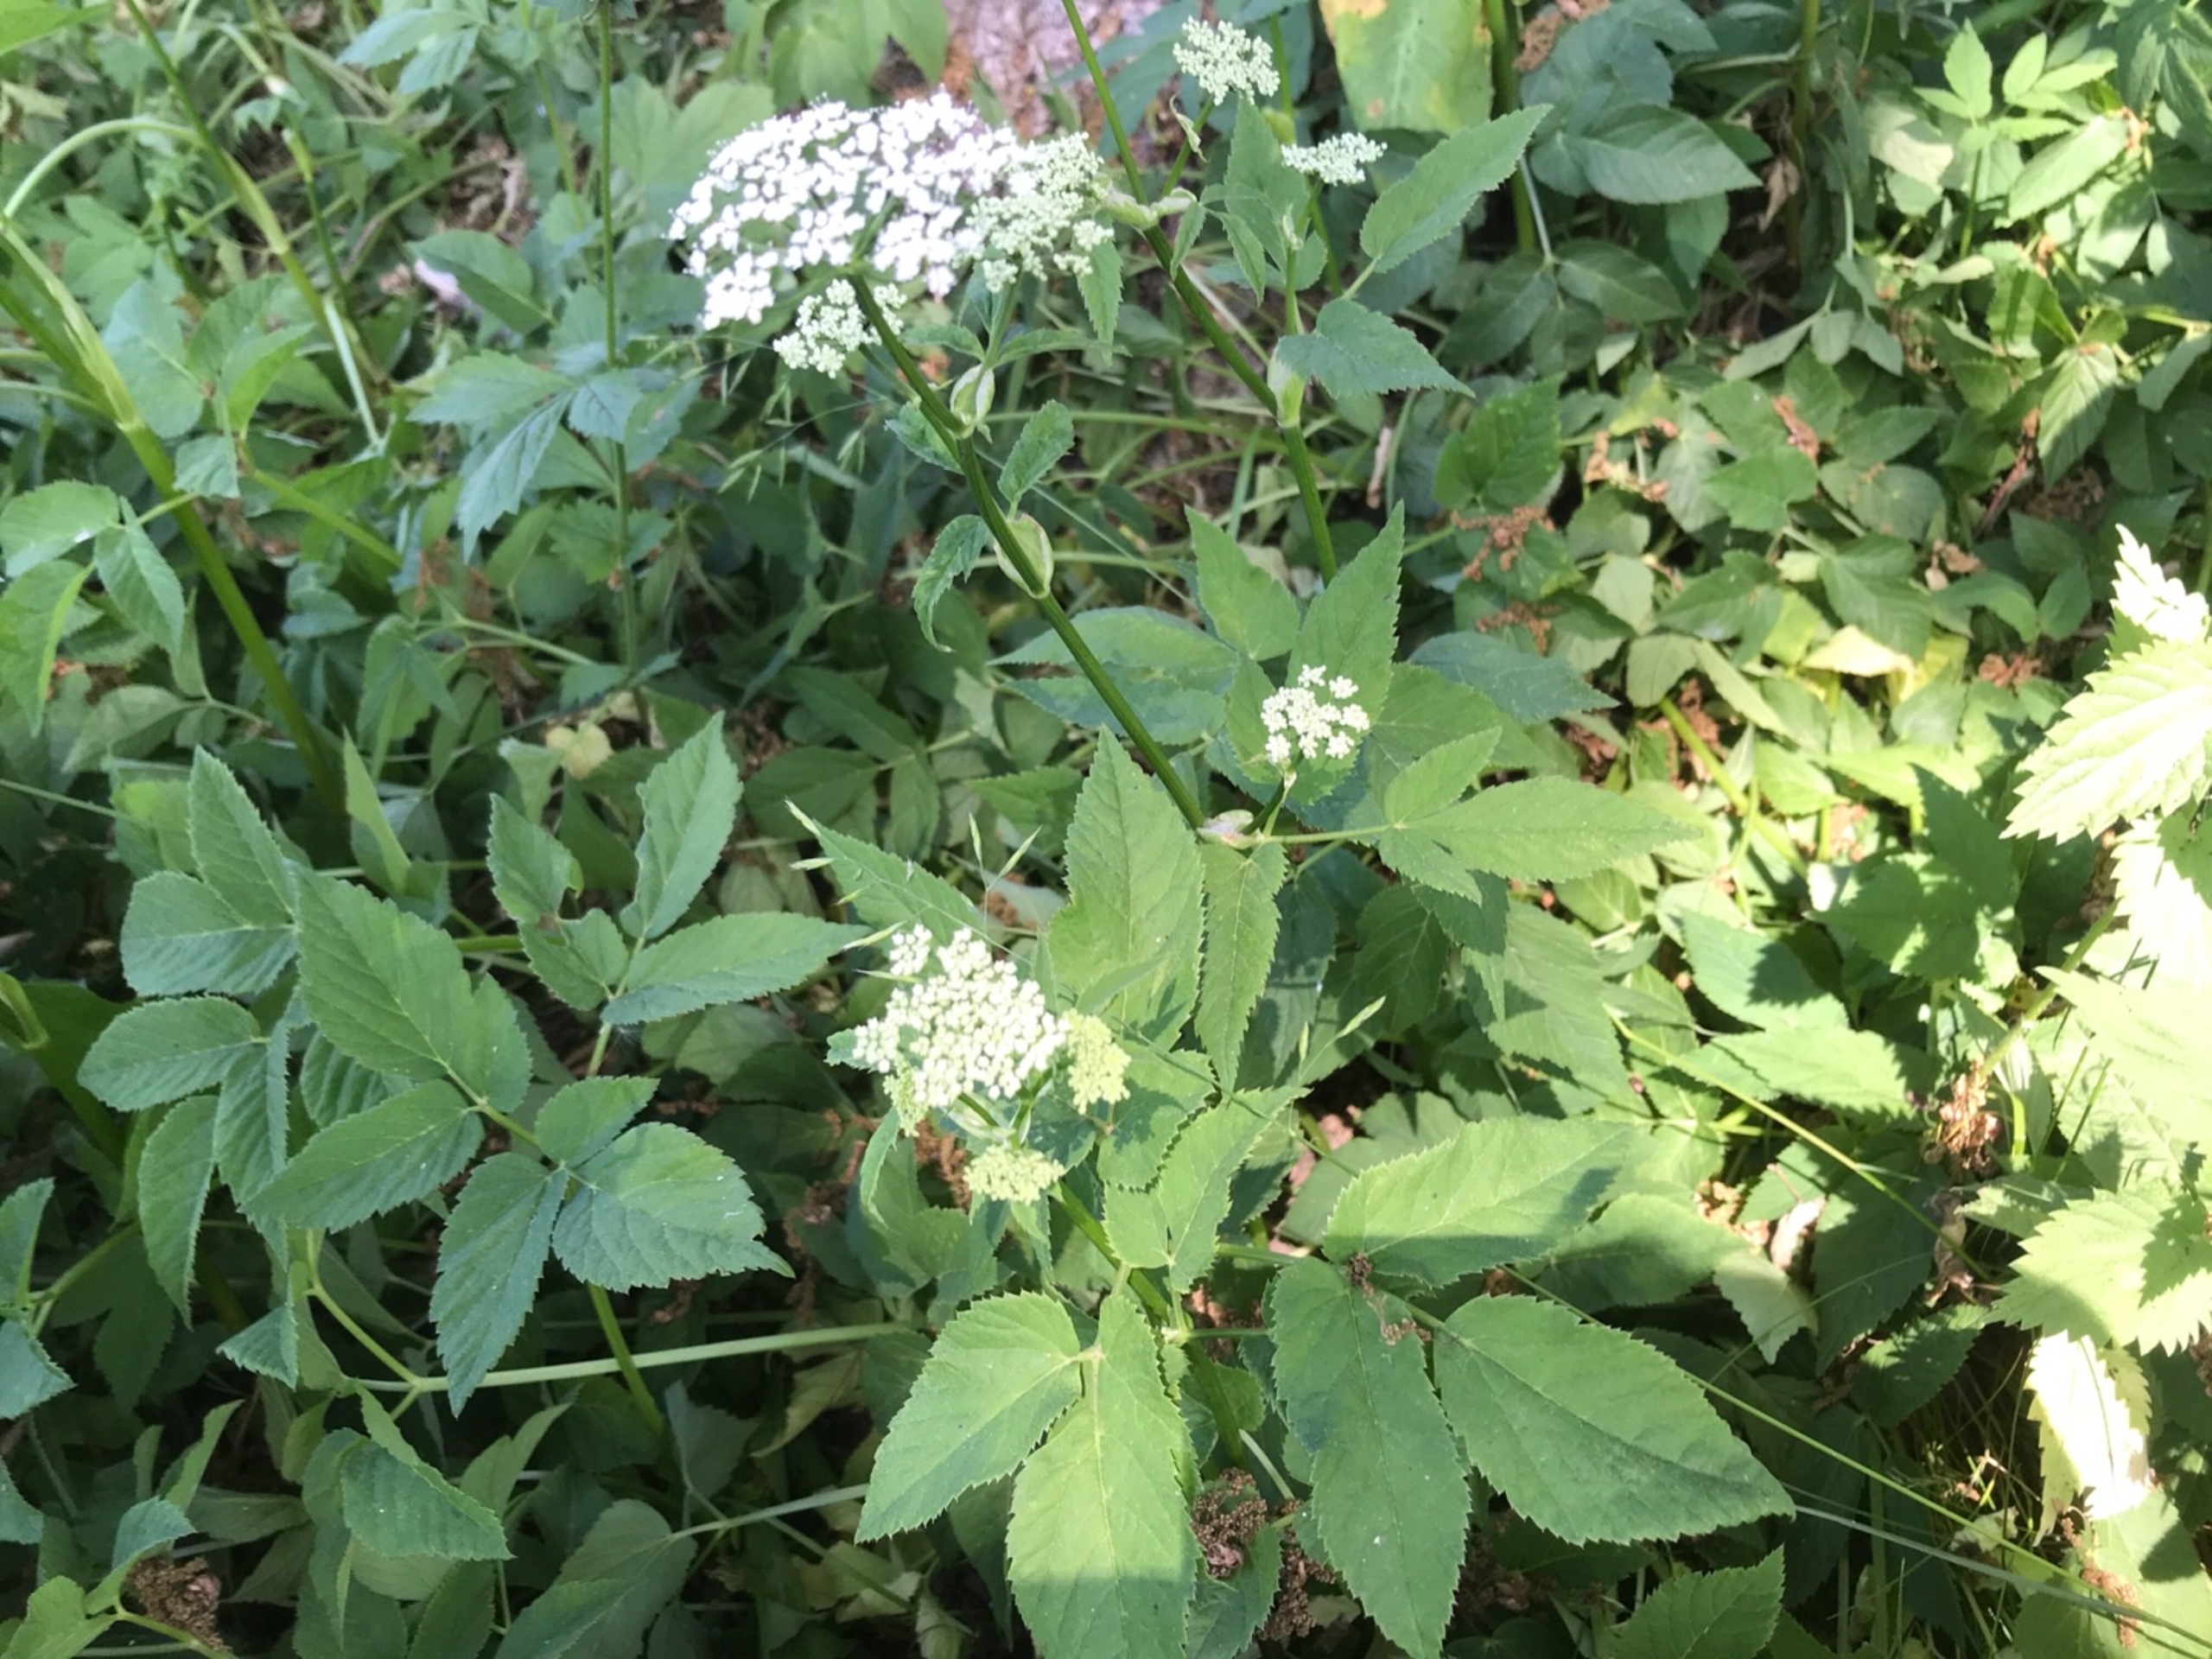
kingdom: Plantae
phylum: Tracheophyta
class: Magnoliopsida
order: Apiales
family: Apiaceae
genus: Aegopodium
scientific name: Aegopodium podagraria
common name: Skvalderkål
